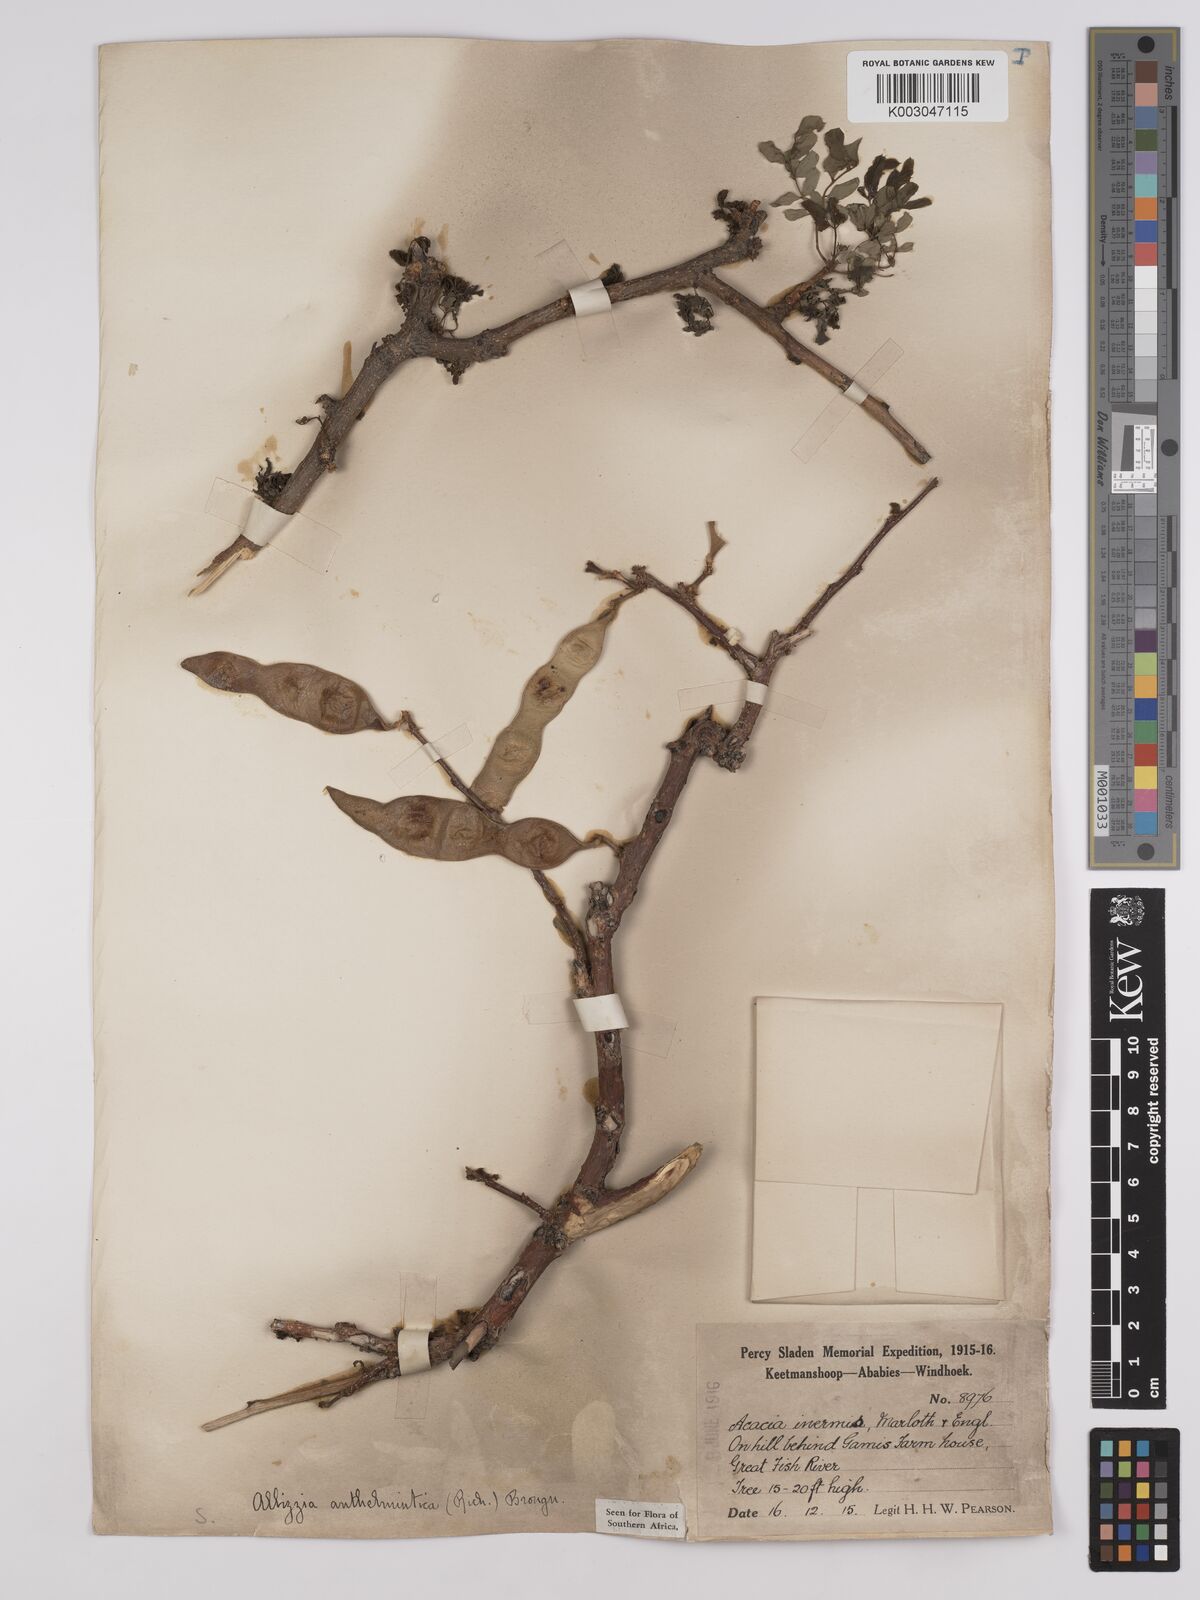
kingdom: Plantae
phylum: Tracheophyta
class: Magnoliopsida
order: Fabales
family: Fabaceae
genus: Albizia
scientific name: Albizia anthelmintica
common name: Worm-bark false-thorn
